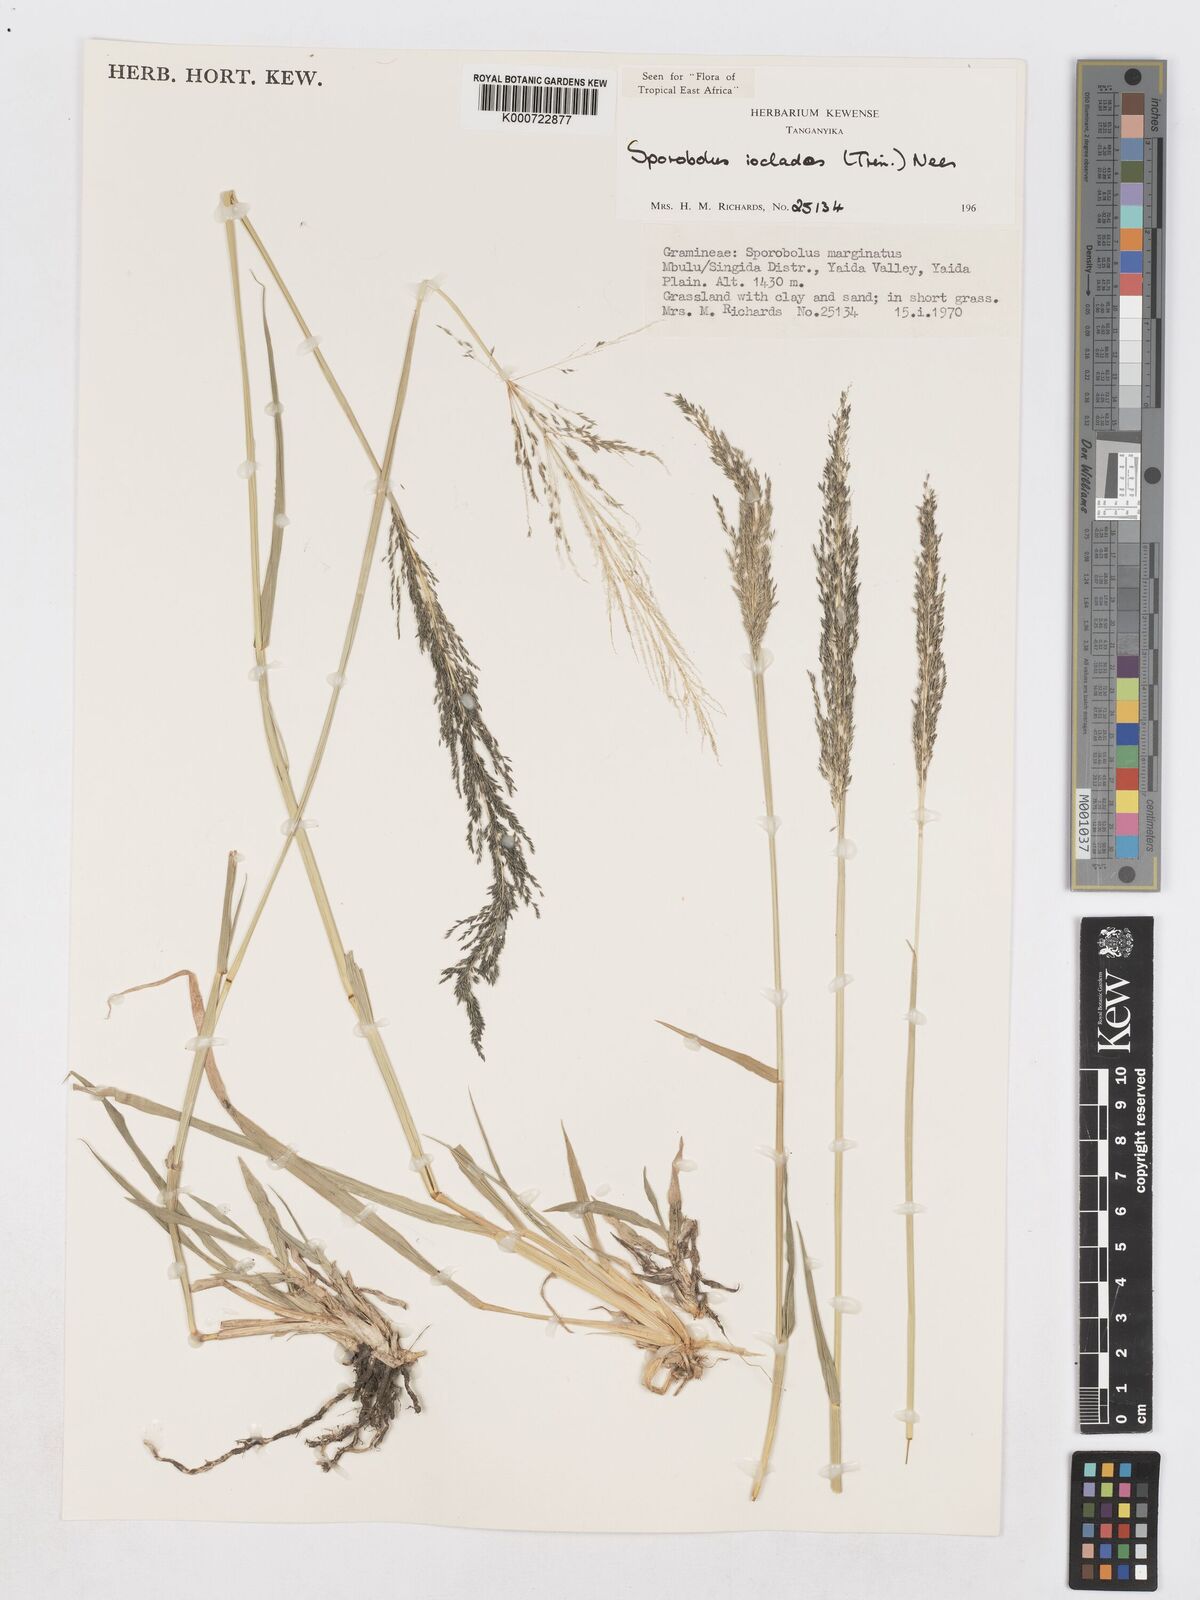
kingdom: Plantae
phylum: Tracheophyta
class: Liliopsida
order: Poales
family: Poaceae
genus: Sporobolus
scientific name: Sporobolus ioclados
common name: Pan dropseed
